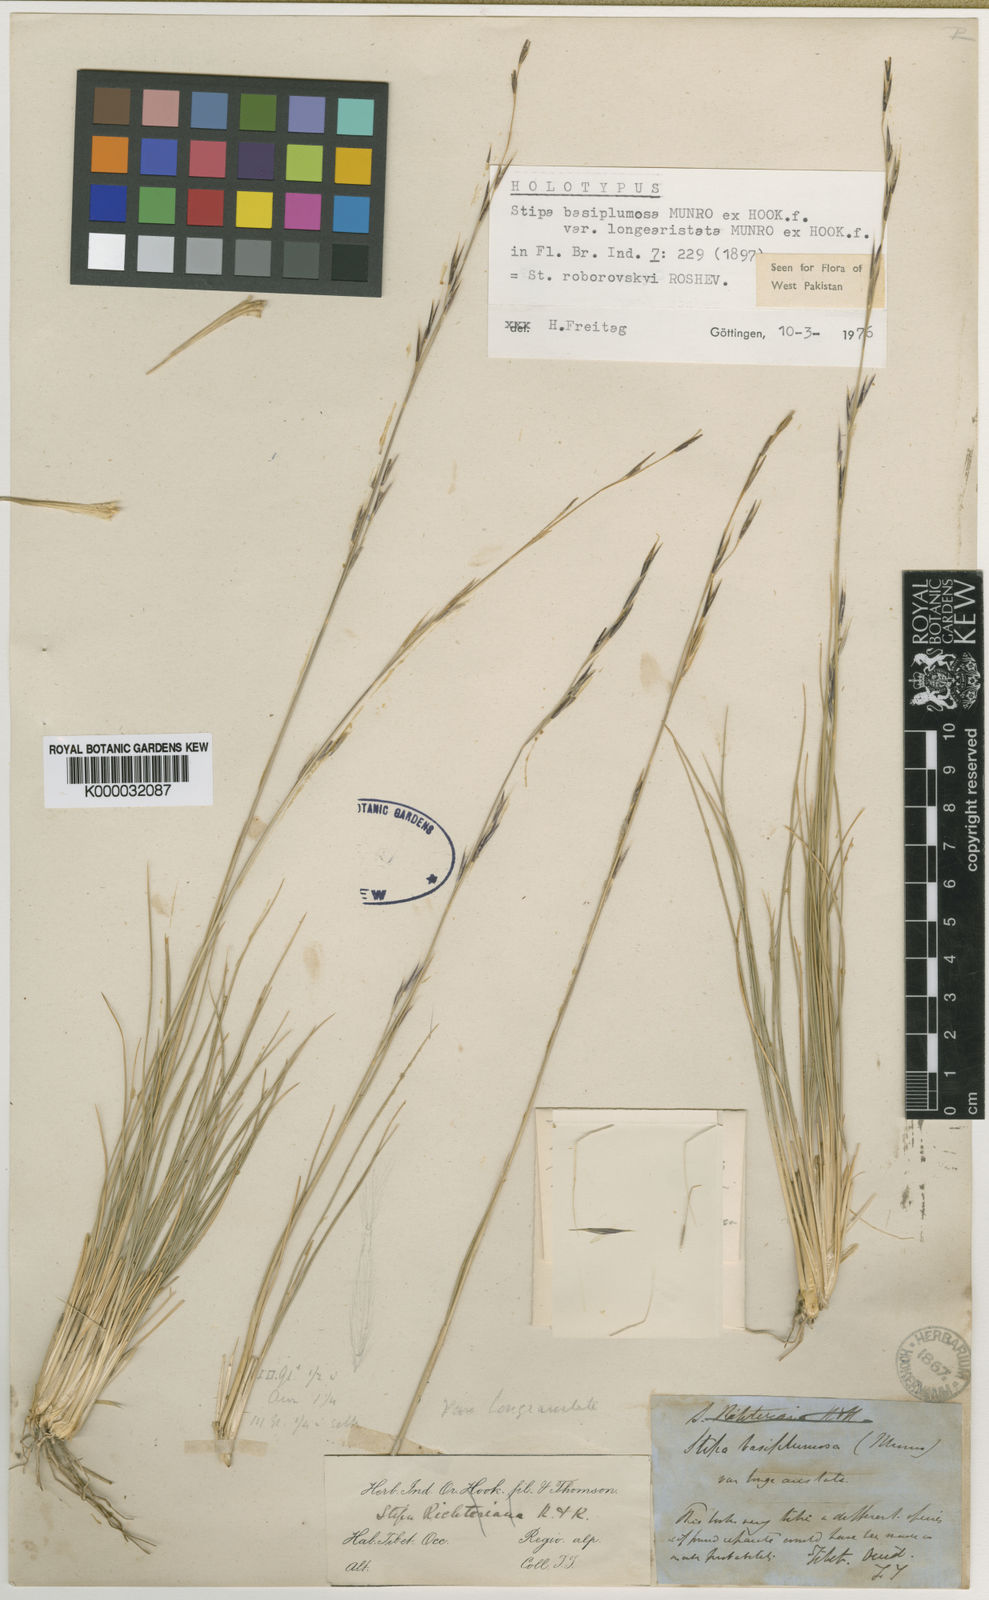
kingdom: Plantae
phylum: Tracheophyta
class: Liliopsida
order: Poales
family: Poaceae
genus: Stipa
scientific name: Stipa klimesii
